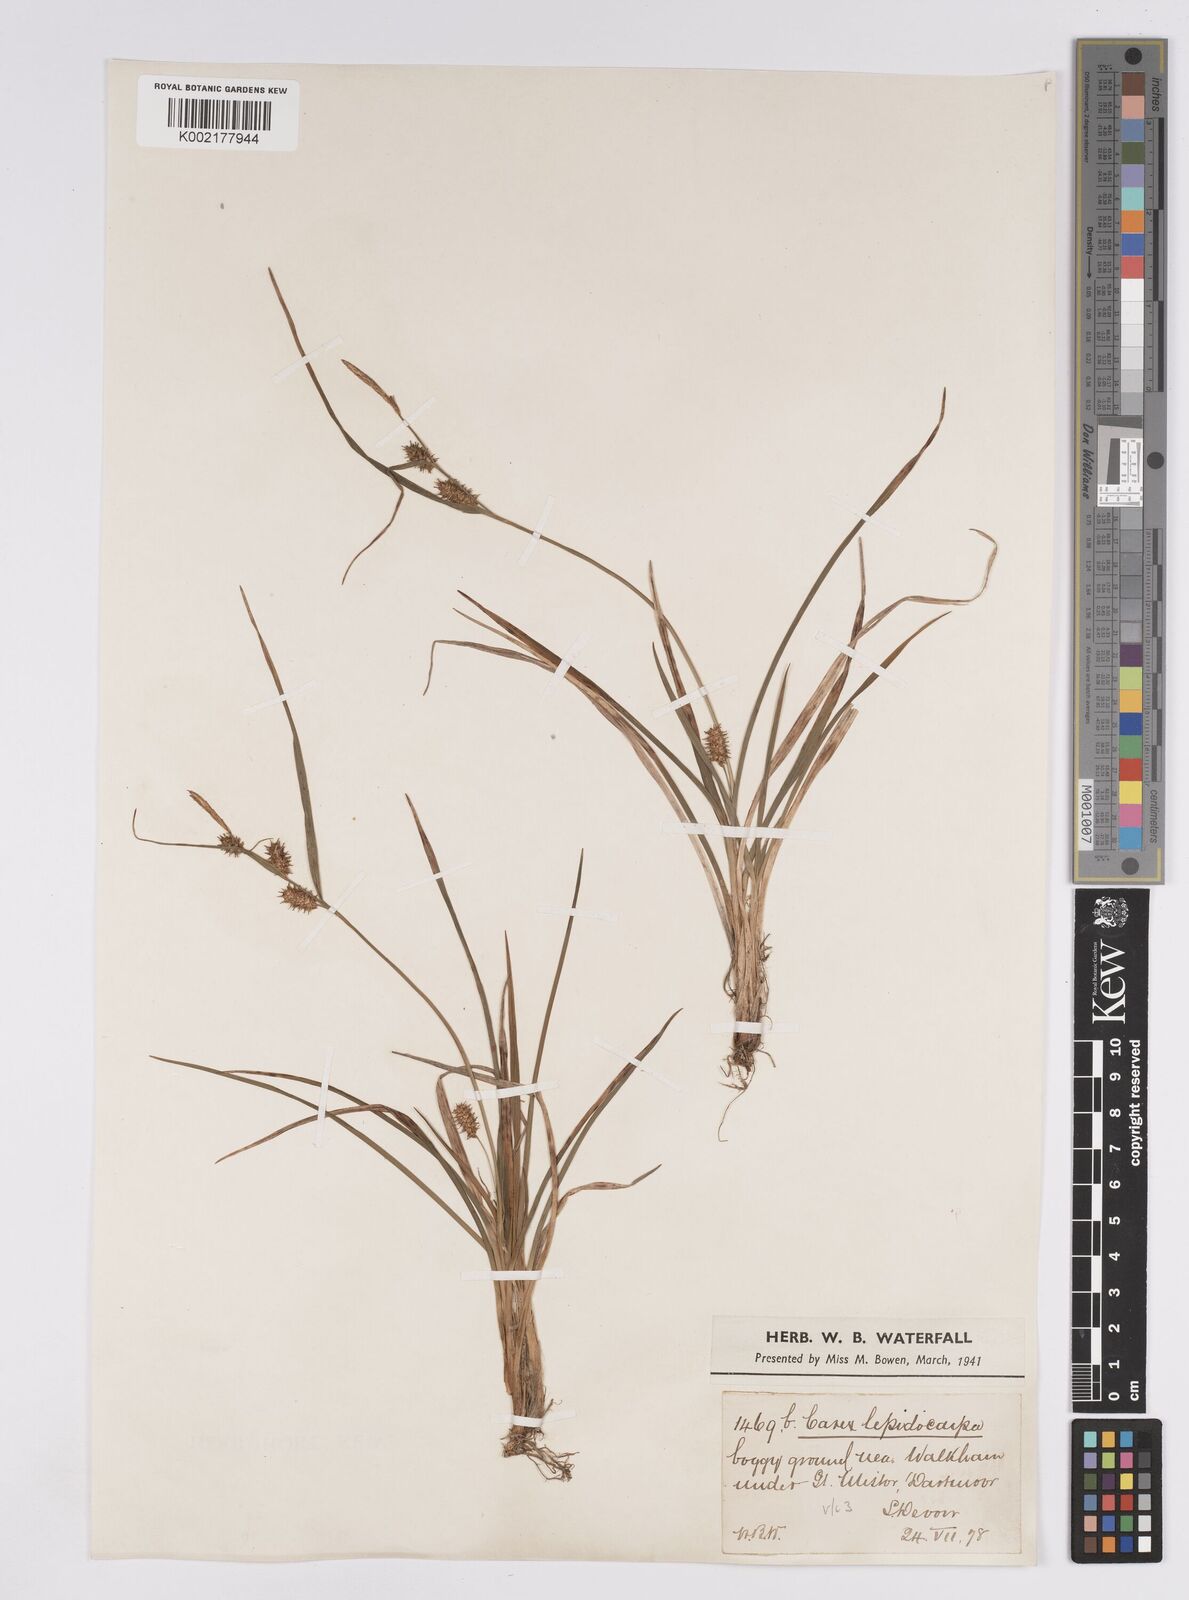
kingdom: Plantae
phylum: Tracheophyta
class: Liliopsida
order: Poales
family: Cyperaceae
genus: Carex
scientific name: Carex demissa
